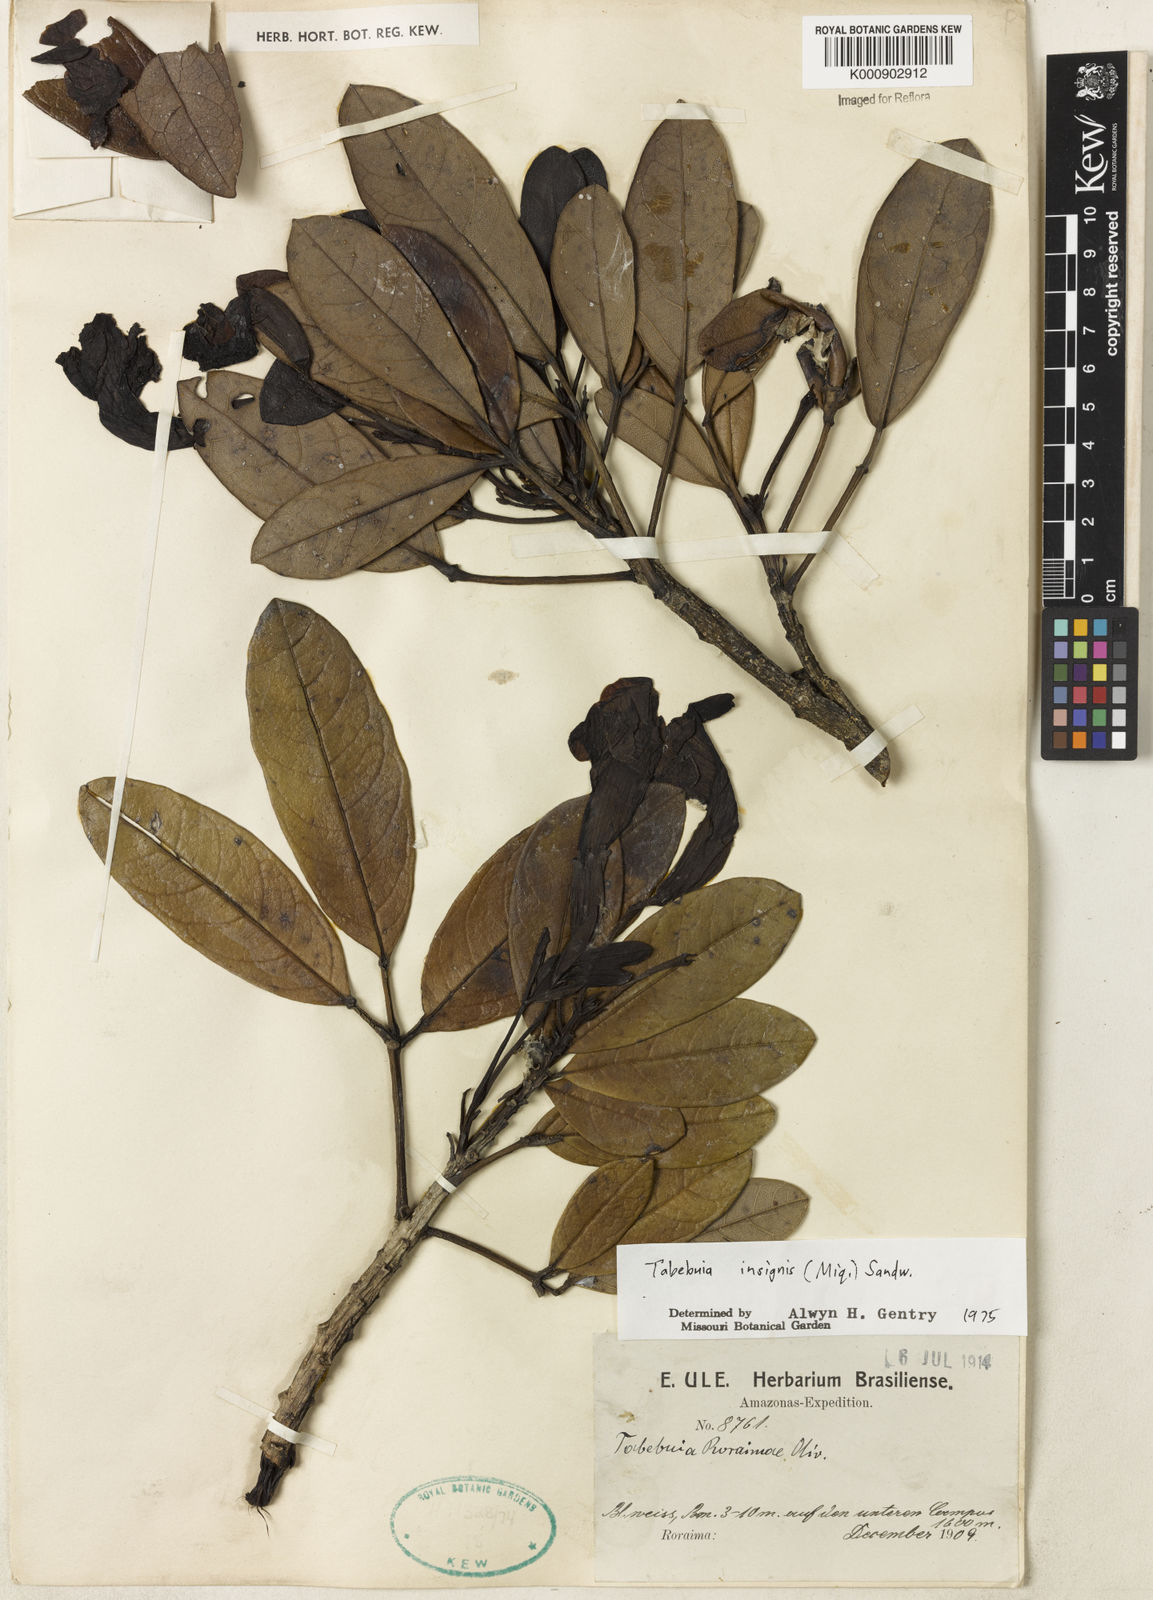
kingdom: Plantae
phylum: Tracheophyta
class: Magnoliopsida
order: Lamiales
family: Bignoniaceae
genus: Tabebuia
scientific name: Tabebuia insignis
